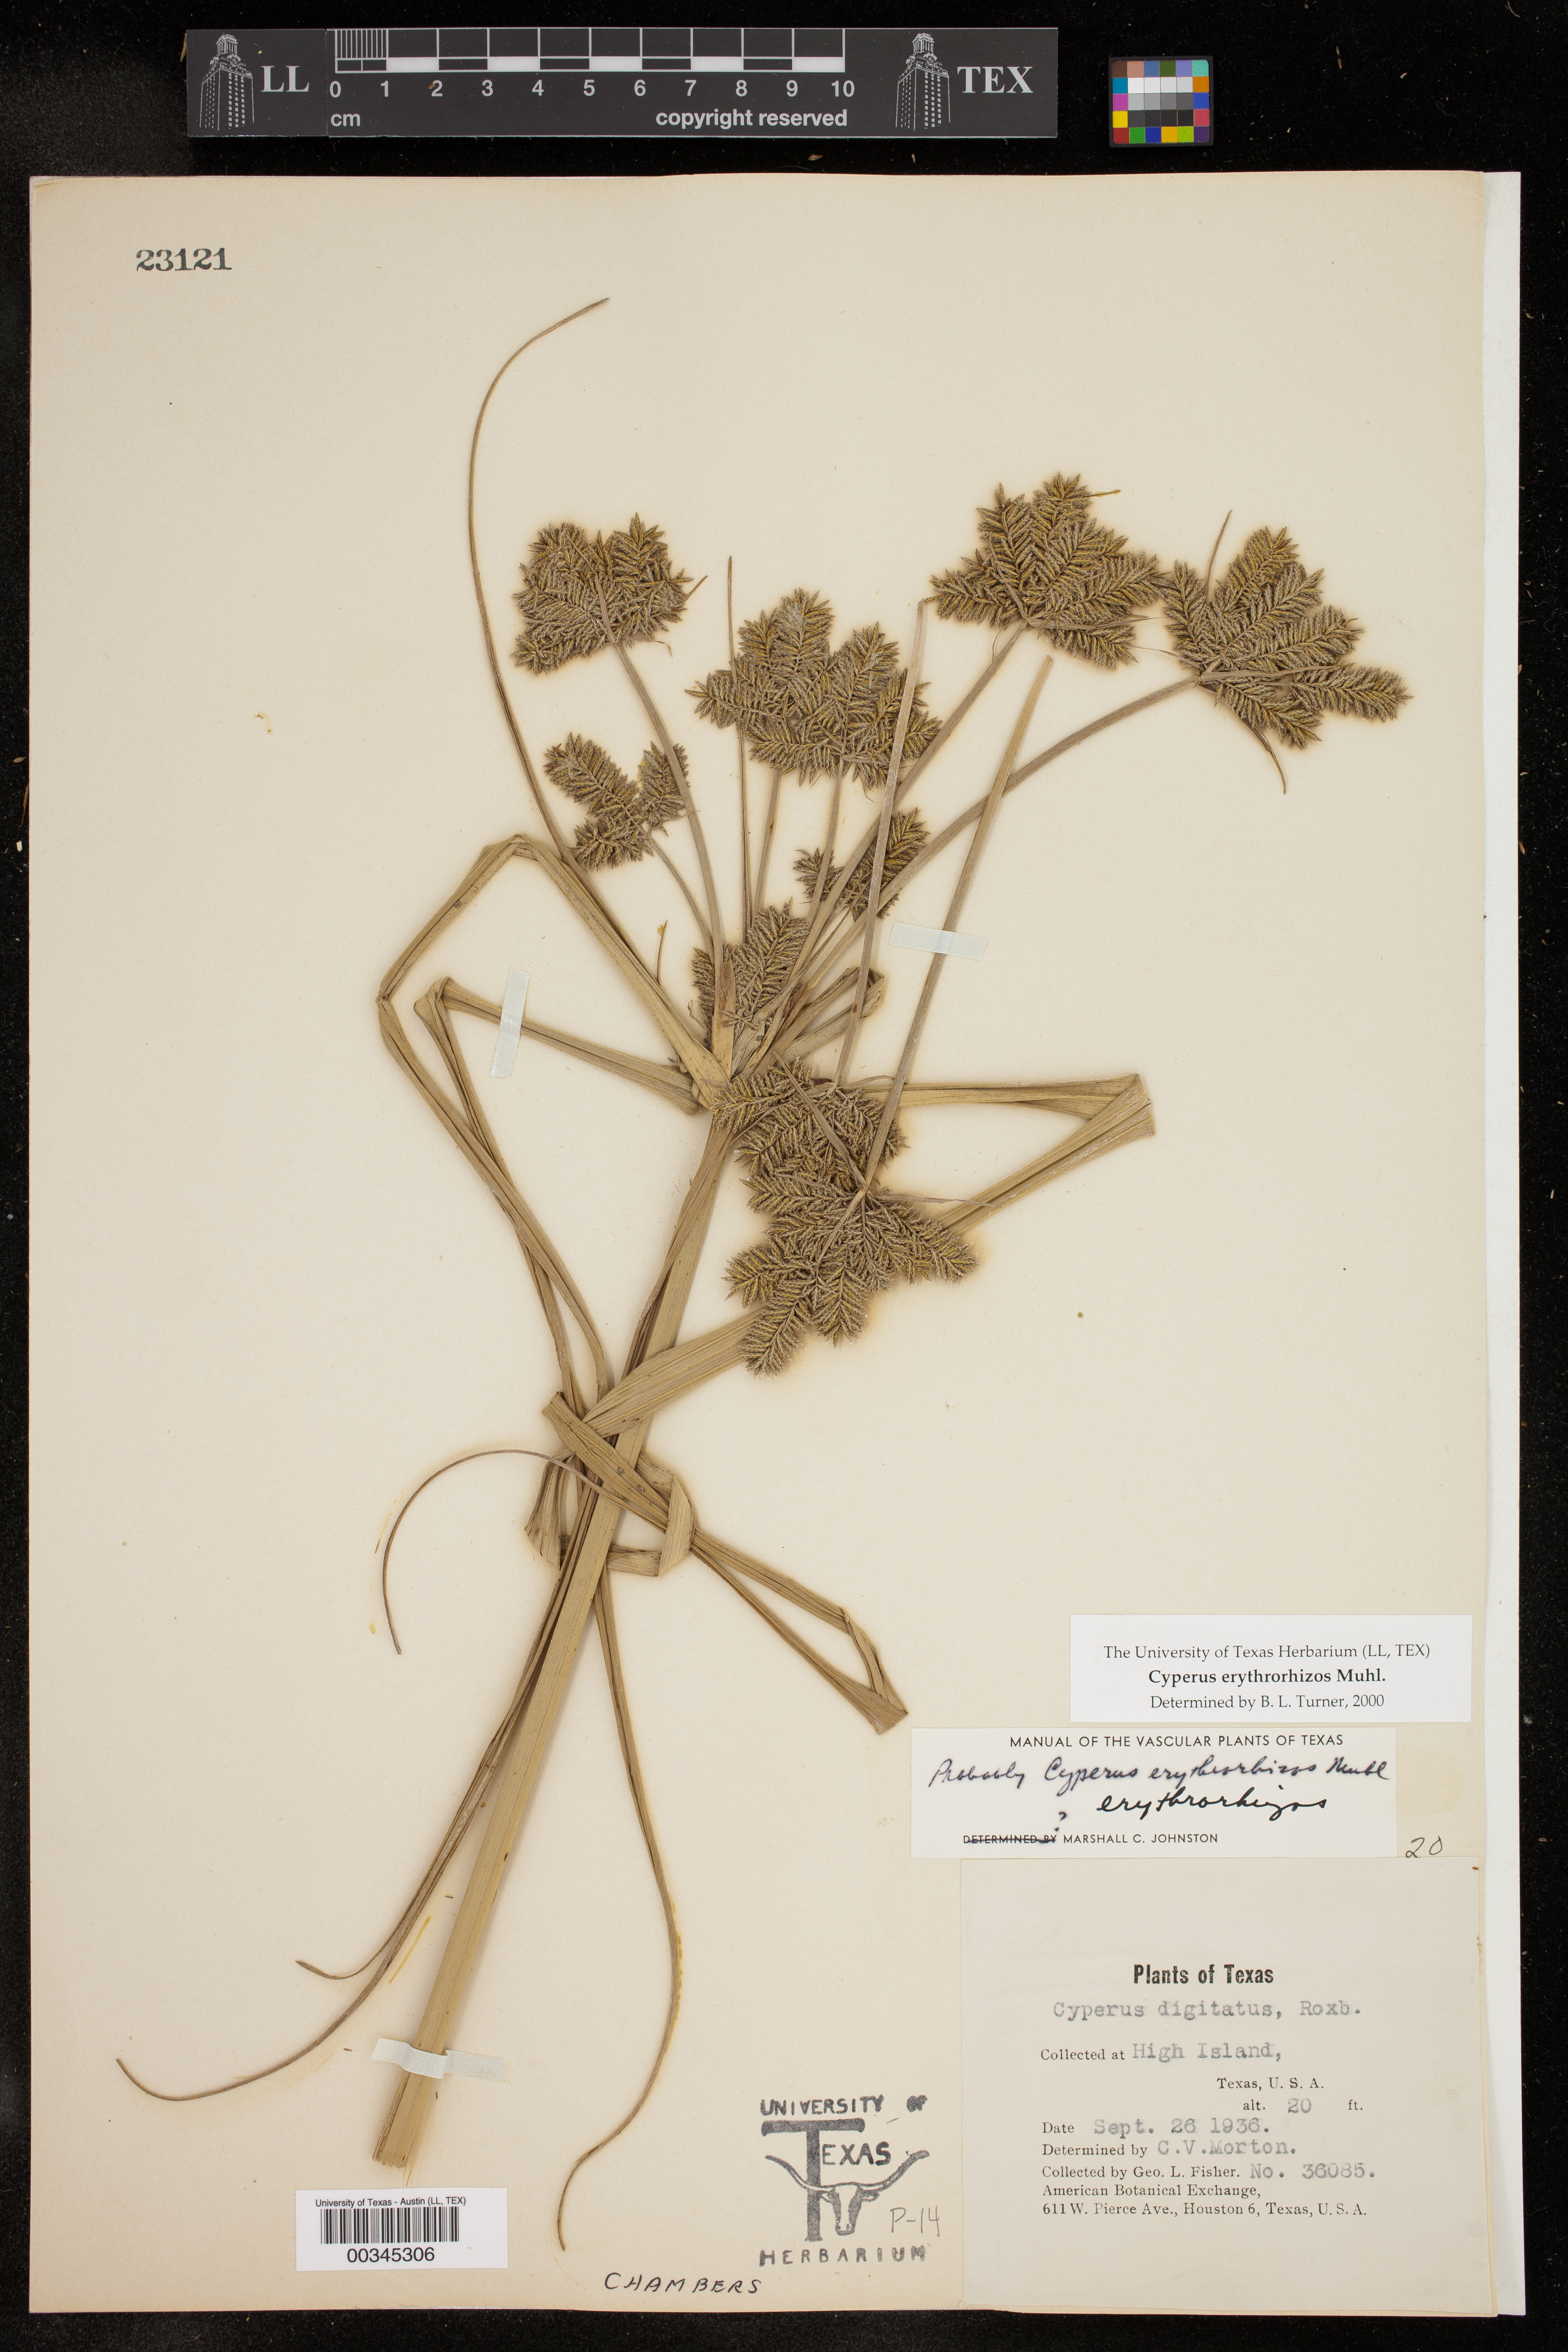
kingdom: Plantae
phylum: Tracheophyta
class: Liliopsida
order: Poales
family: Cyperaceae
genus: Cyperus
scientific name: Cyperus erythrorhizos
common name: Red-root flat sedge
